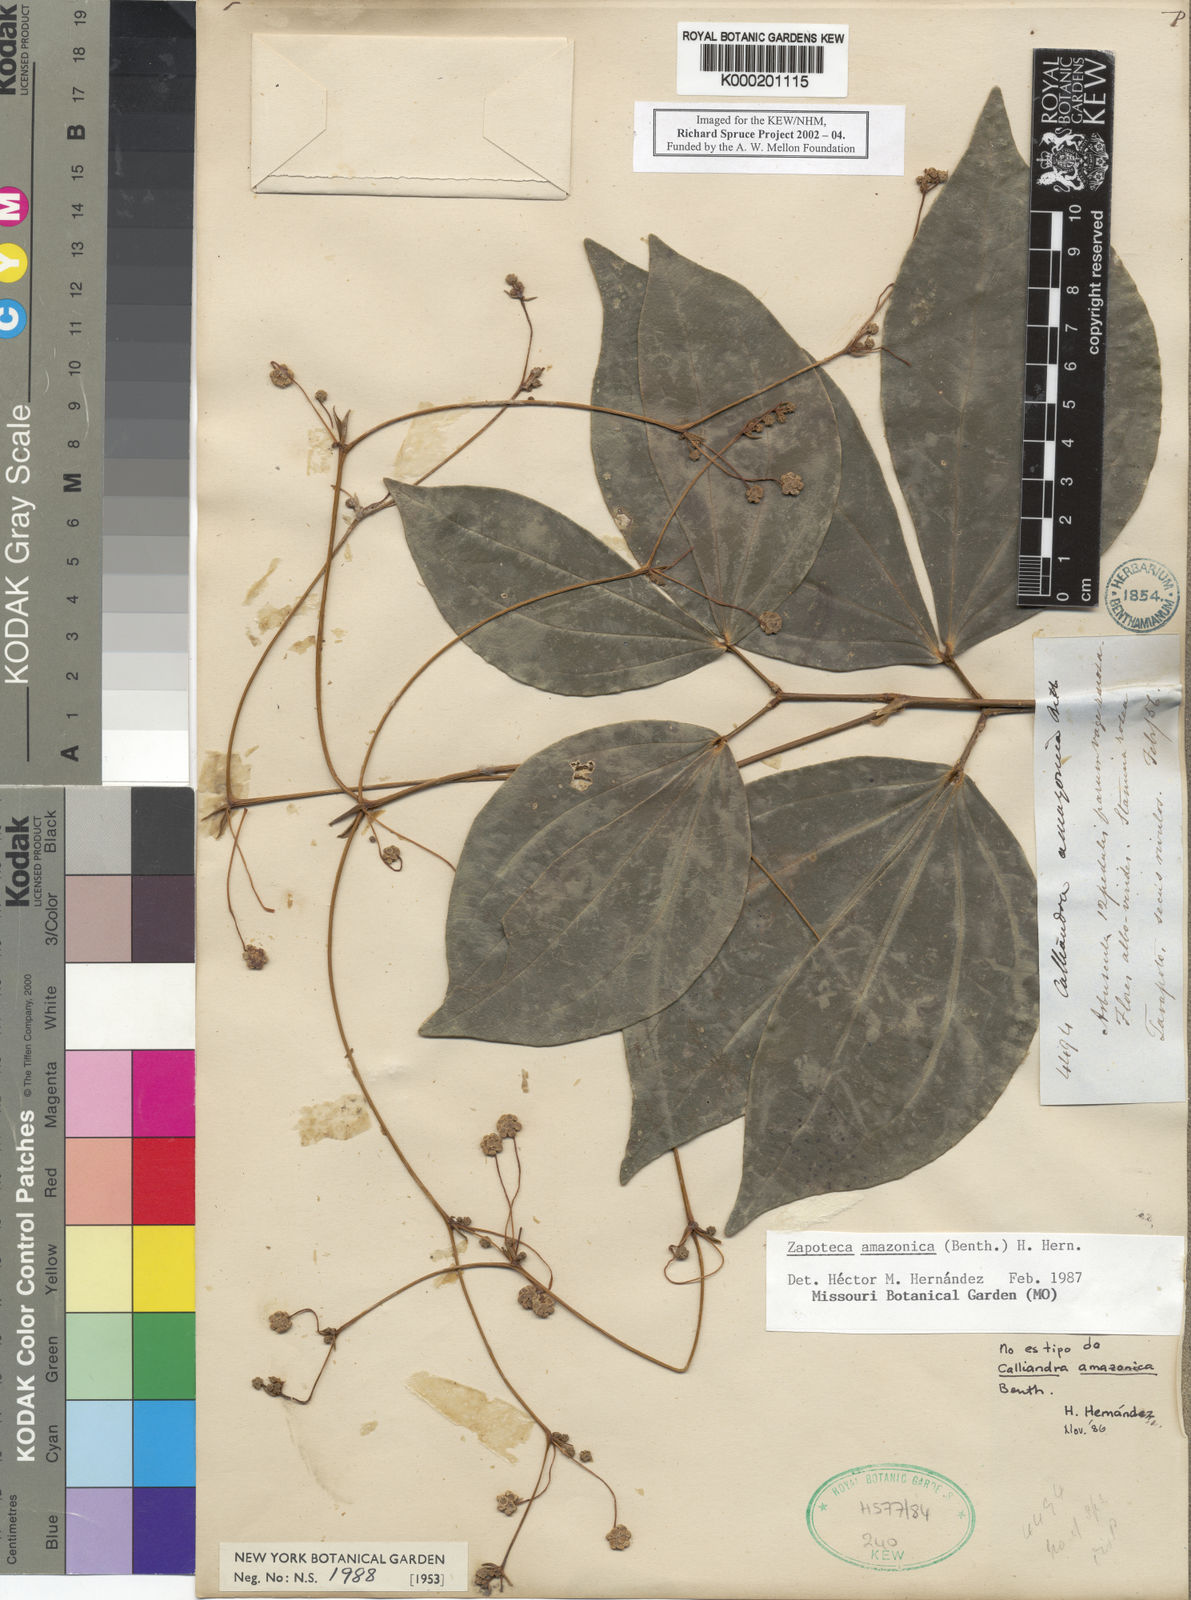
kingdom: Plantae
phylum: Tracheophyta
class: Magnoliopsida
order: Fabales
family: Fabaceae
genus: Zapoteca
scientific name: Zapoteca amazonica
